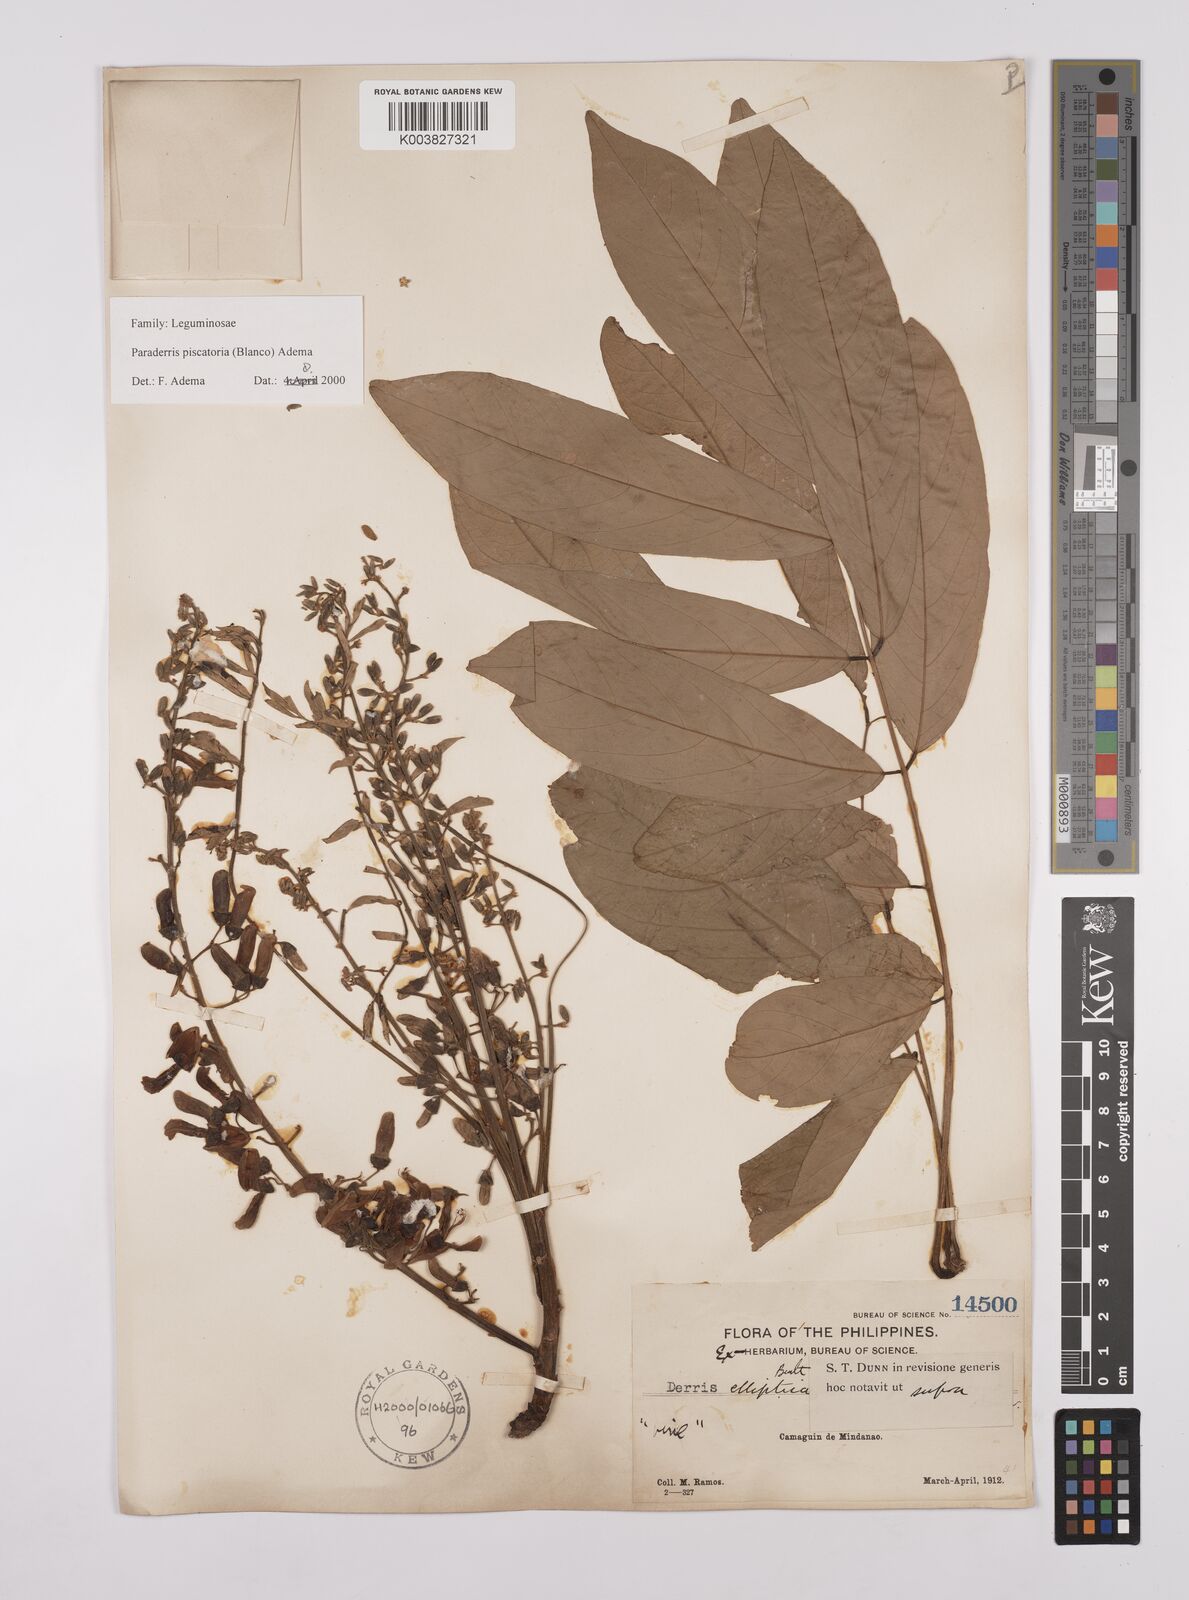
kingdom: Plantae
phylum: Tracheophyta
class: Magnoliopsida
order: Fabales
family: Fabaceae
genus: Derris
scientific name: Derris piscatoria
